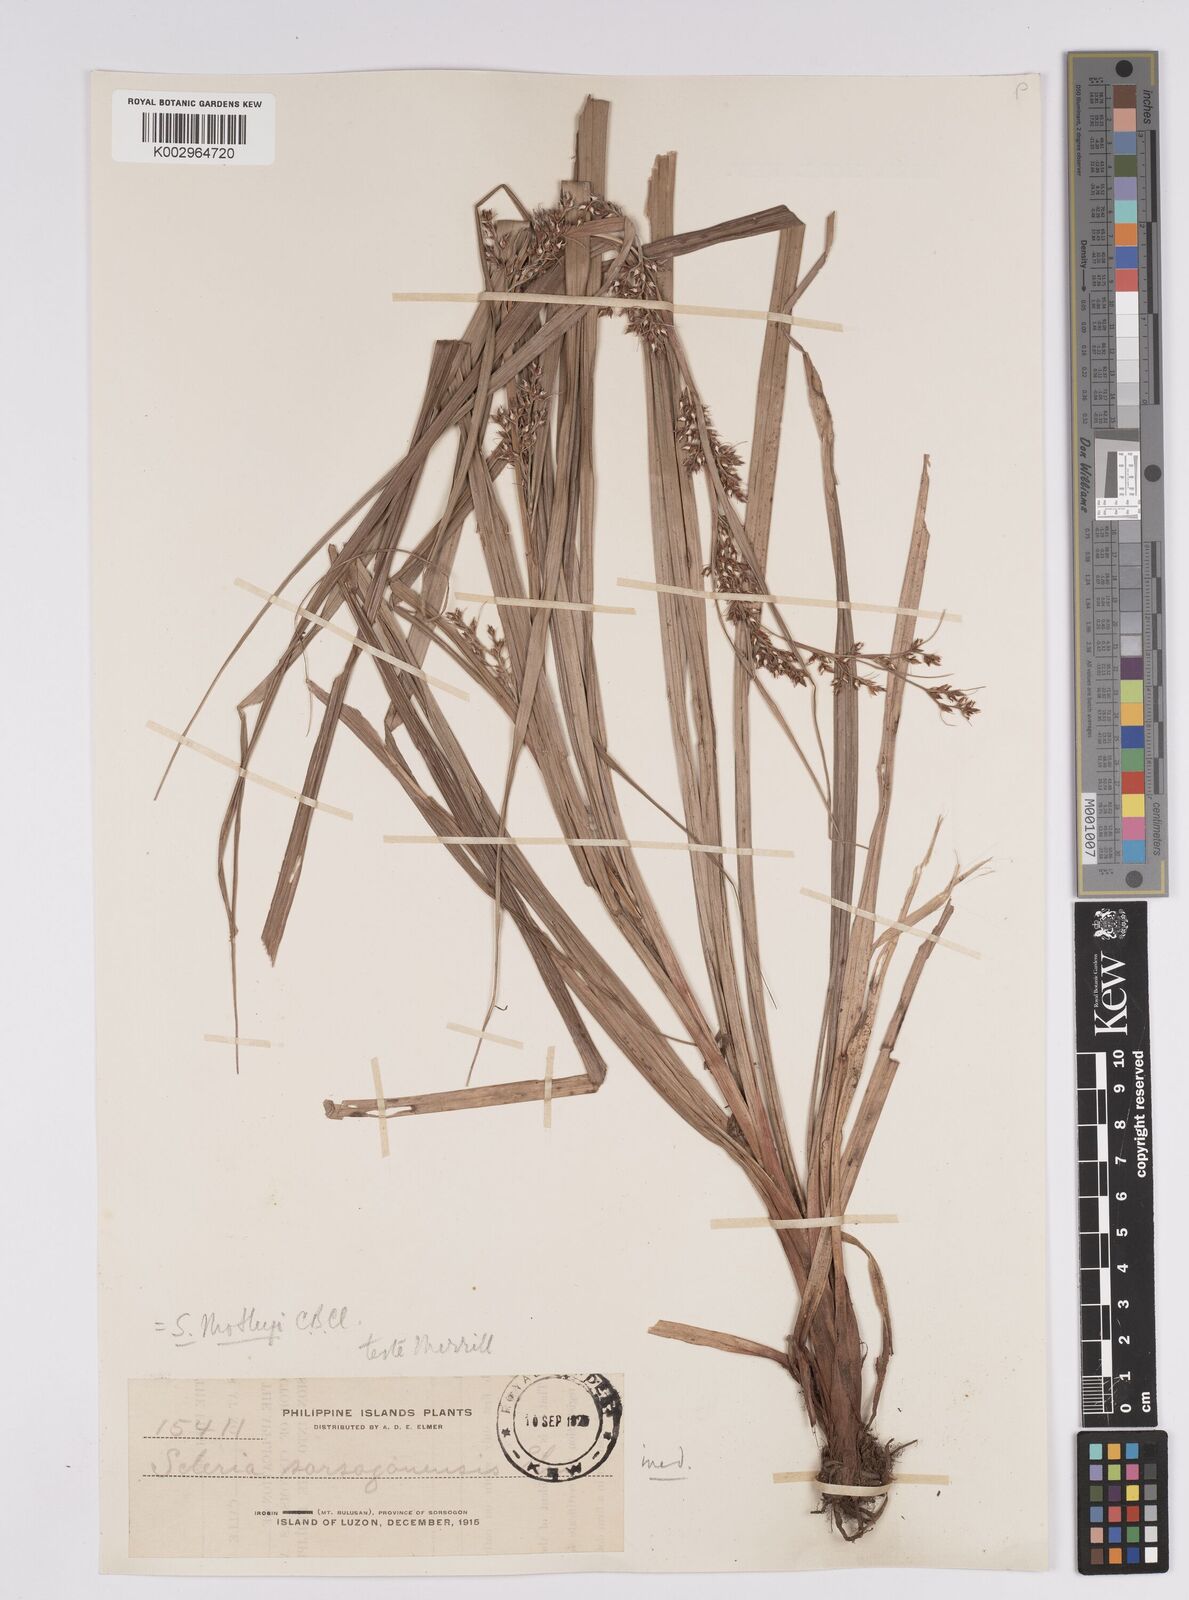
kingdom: Plantae
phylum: Tracheophyta
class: Liliopsida
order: Poales
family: Cyperaceae
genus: Scleria
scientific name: Scleria motleyi
